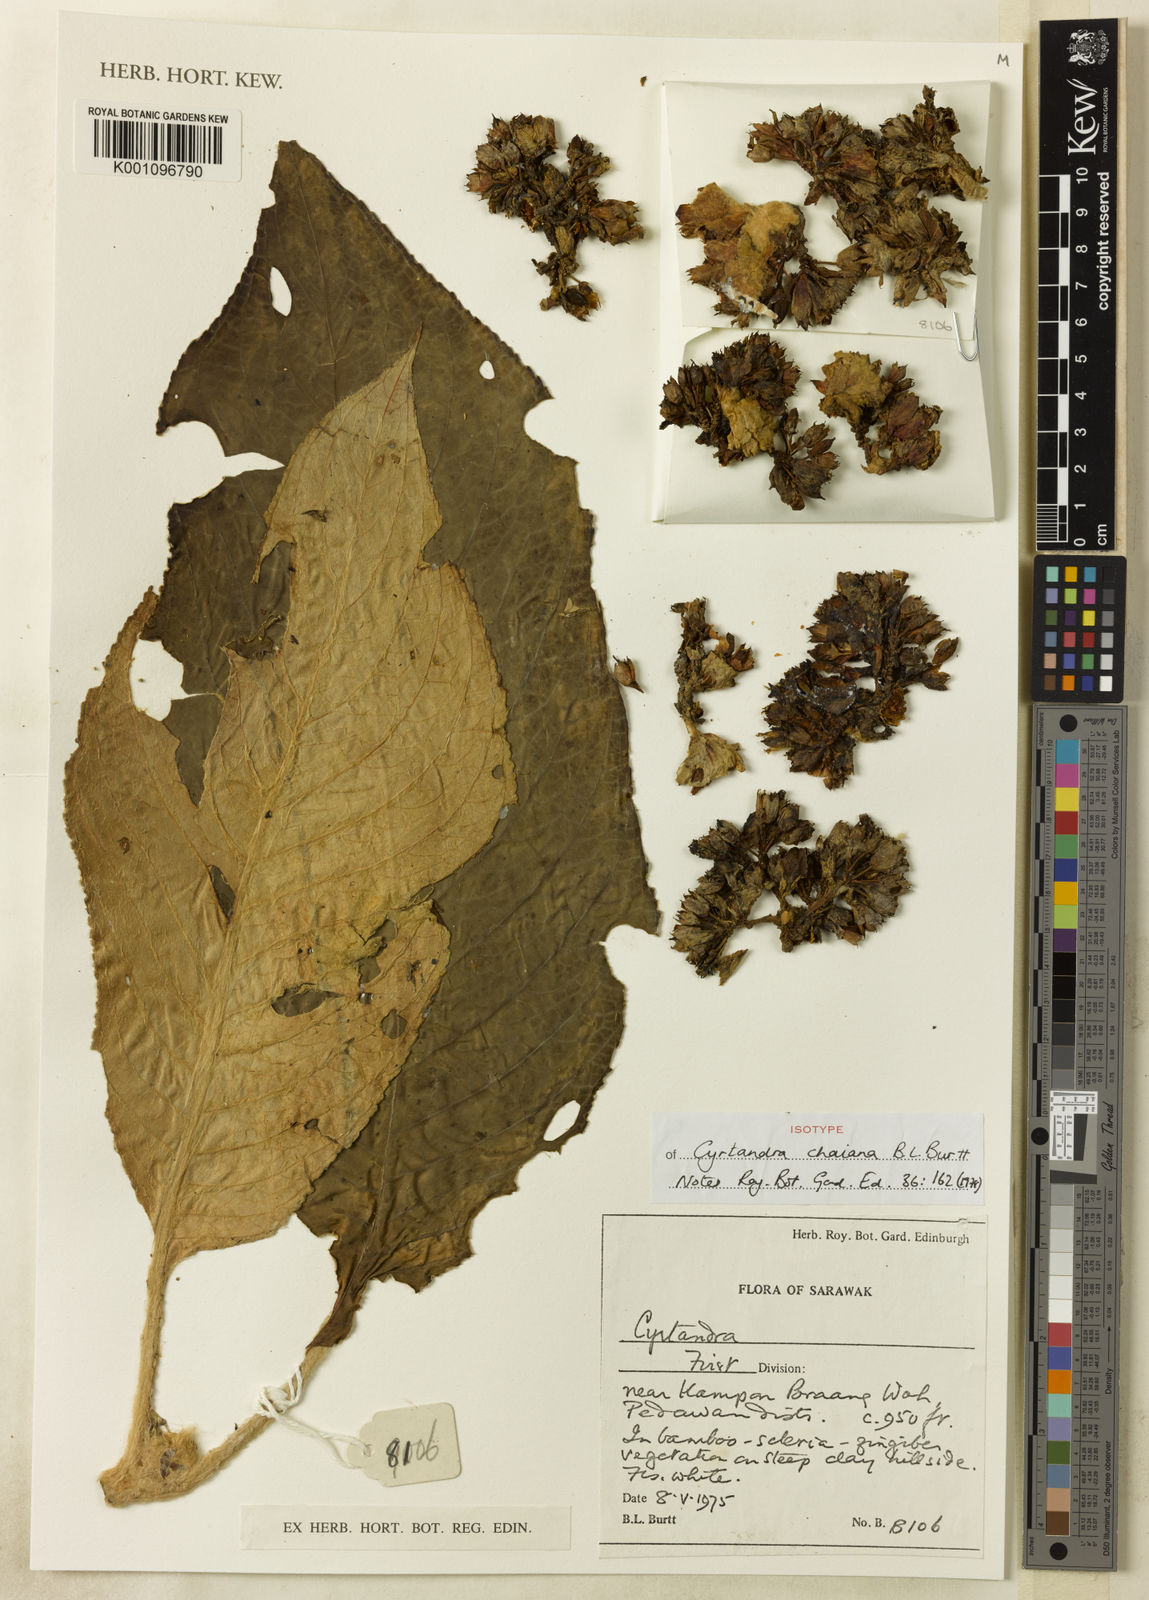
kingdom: Plantae
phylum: Tracheophyta
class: Magnoliopsida
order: Lamiales
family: Gesneriaceae
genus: Cyrtandra
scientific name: Cyrtandra chaiana
